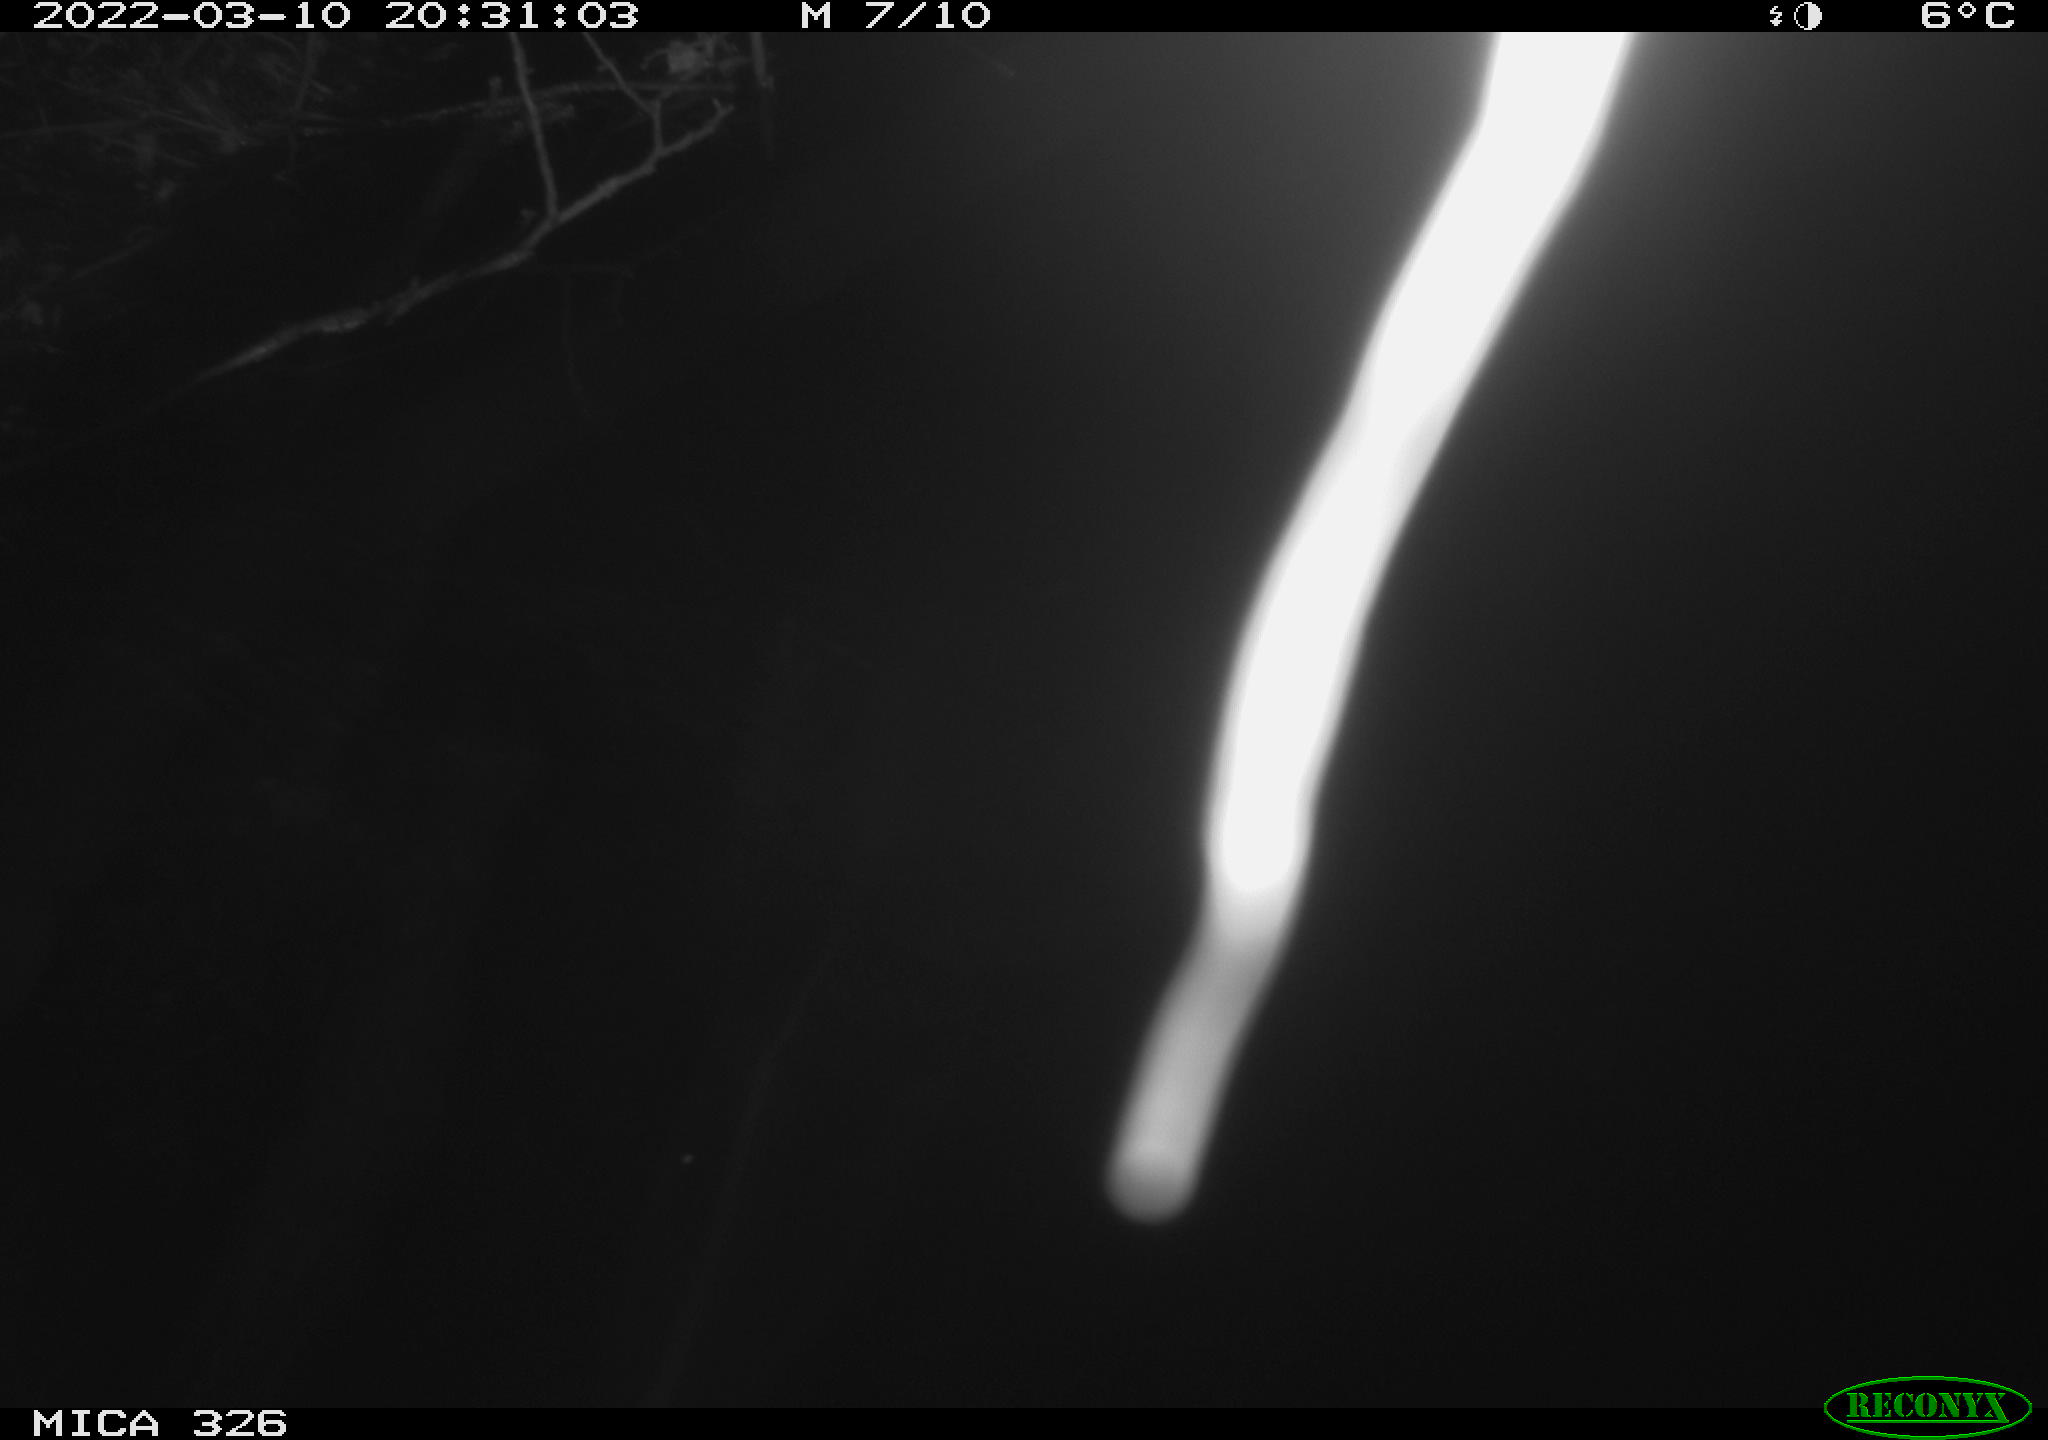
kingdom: Animalia
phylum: Chordata
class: Mammalia
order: Rodentia
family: Muridae
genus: Rattus
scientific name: Rattus norvegicus
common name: Brown rat
